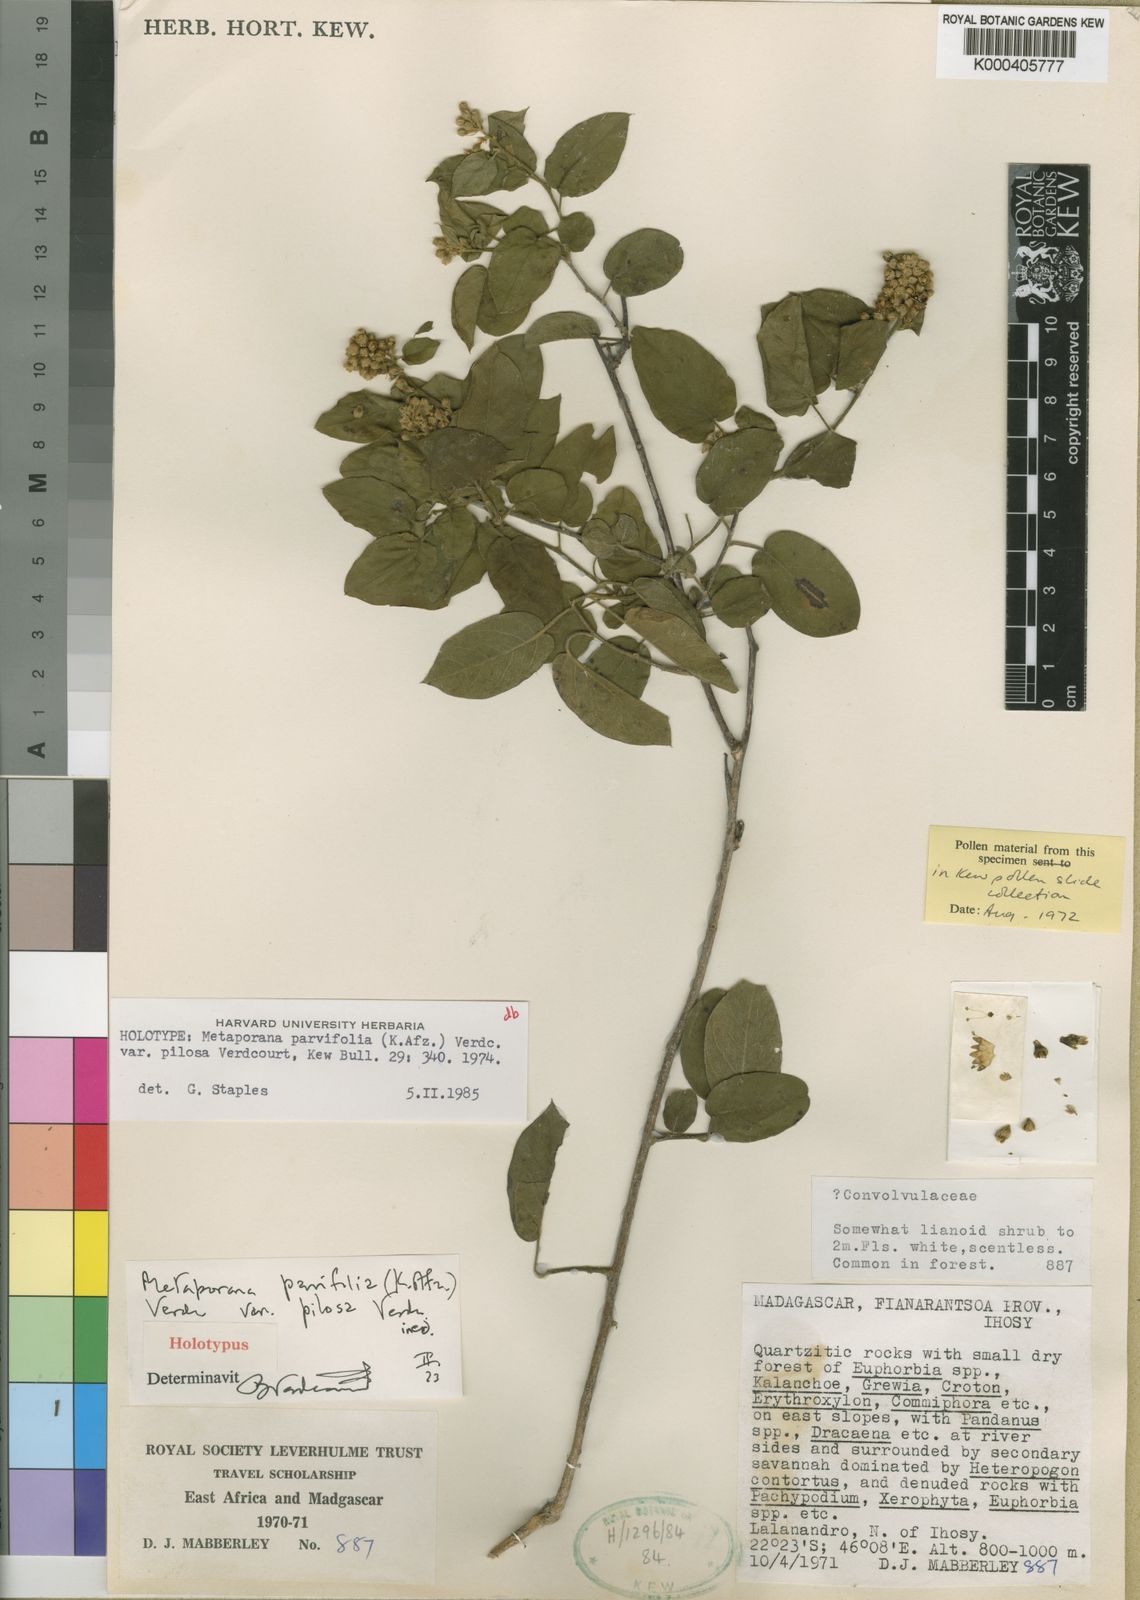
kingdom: Plantae
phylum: Tracheophyta
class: Magnoliopsida
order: Solanales
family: Convolvulaceae
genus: Metaporana
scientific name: Metaporana parvifolia
